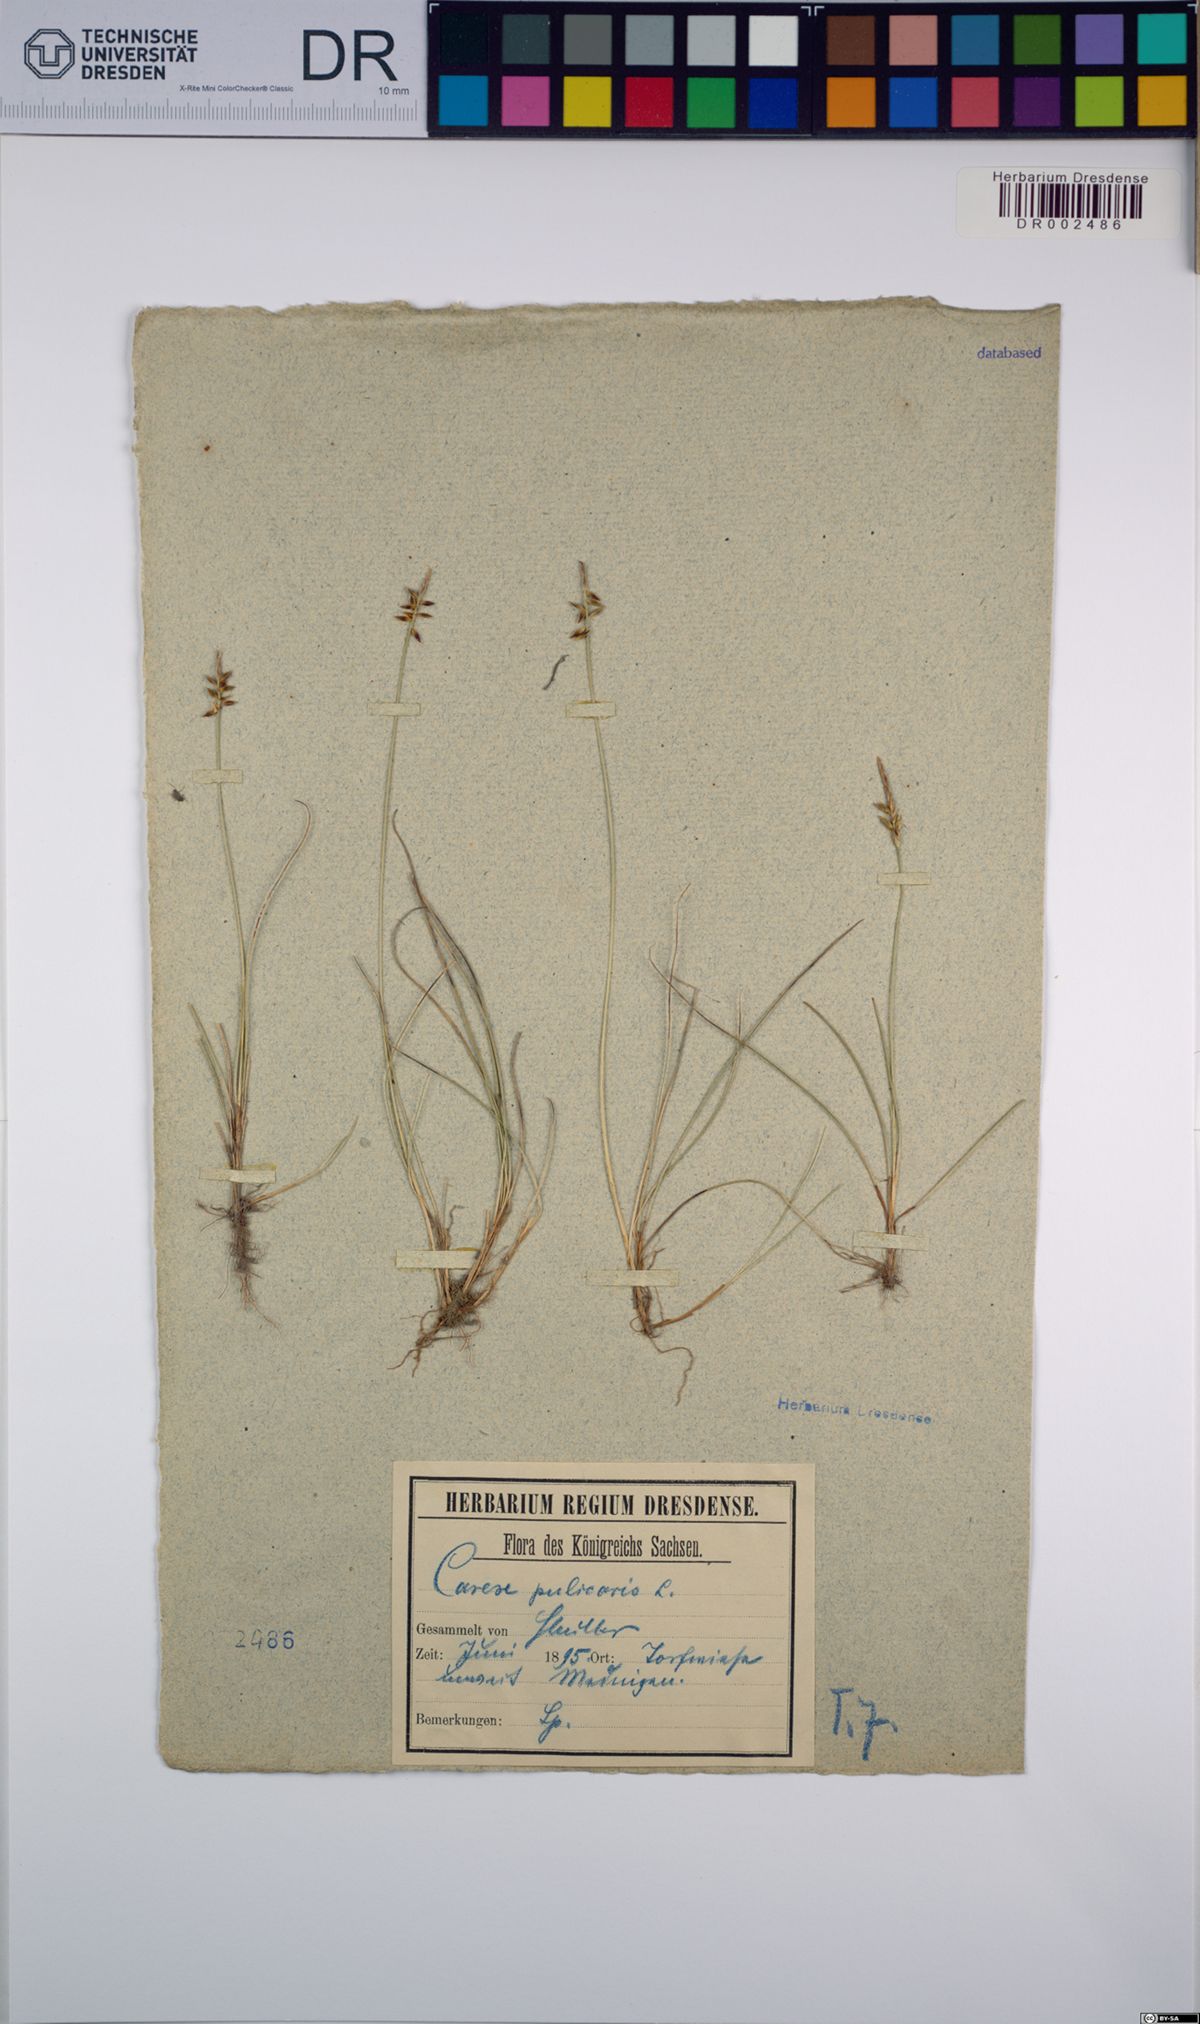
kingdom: Plantae
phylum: Tracheophyta
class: Liliopsida
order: Poales
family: Cyperaceae
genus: Carex
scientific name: Carex pulicaris
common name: Flea sedge
